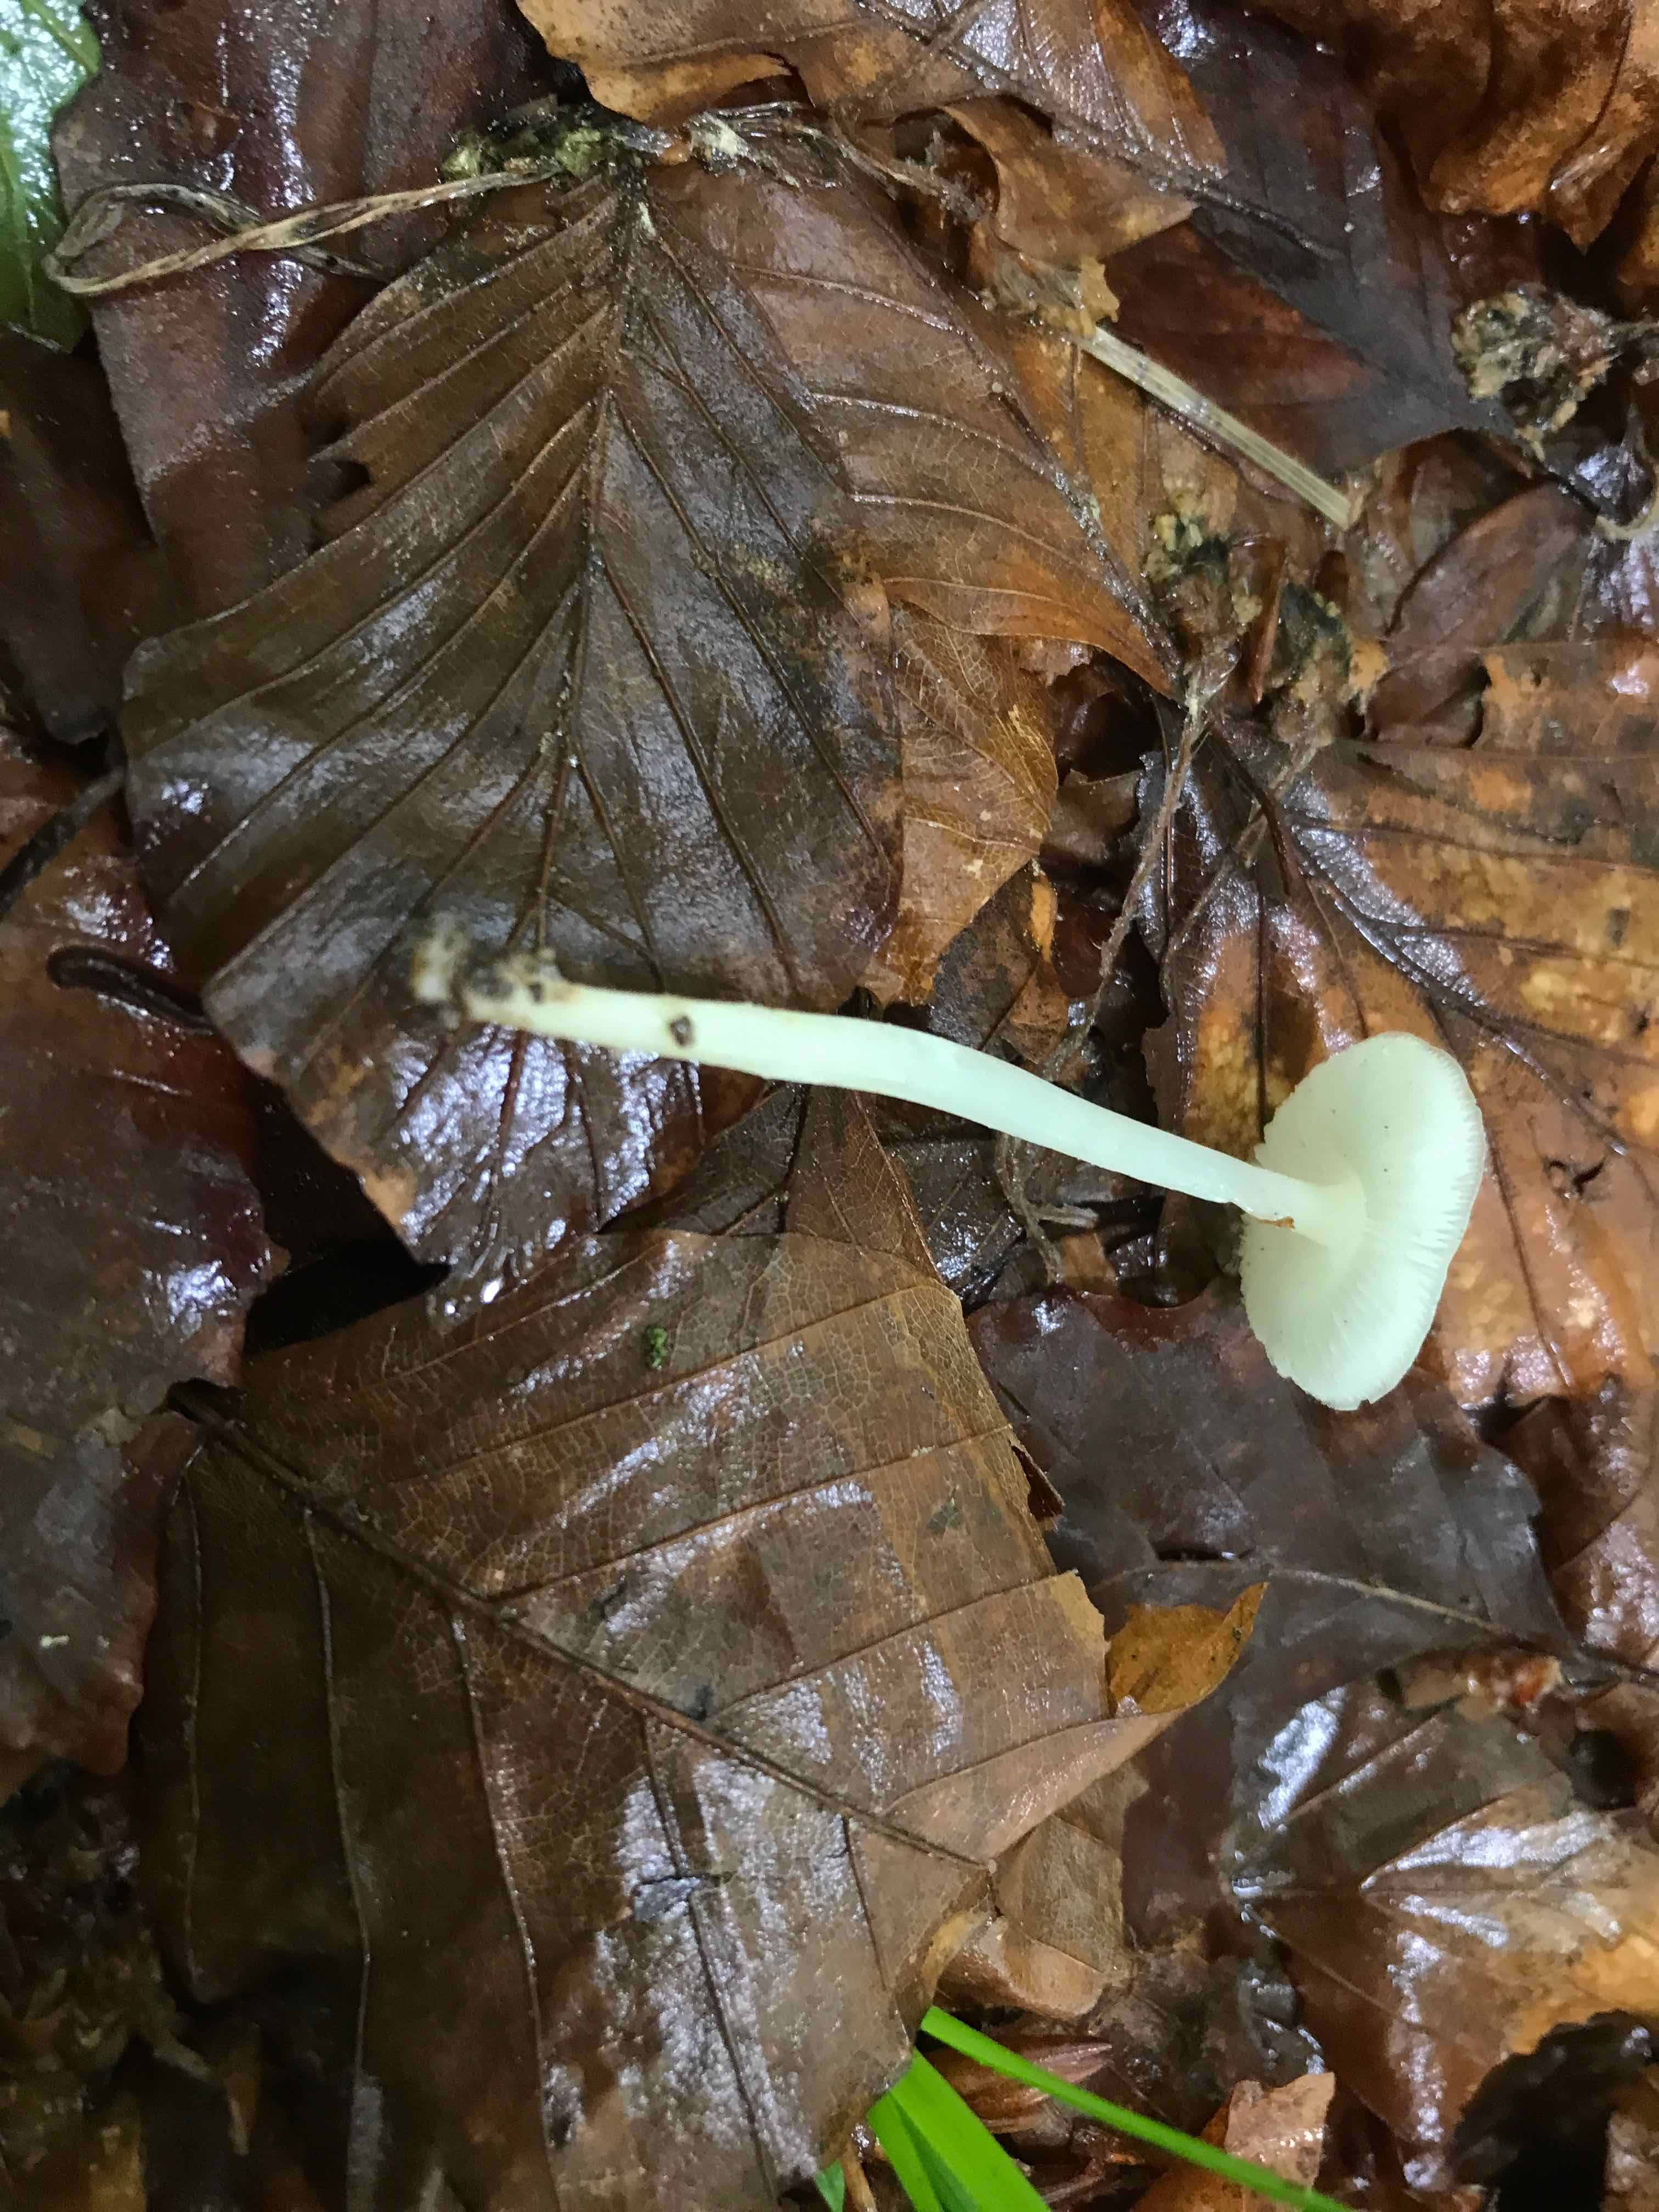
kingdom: Fungi
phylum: Basidiomycota
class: Agaricomycetes
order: Agaricales
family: Porotheleaceae
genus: Hydropodia
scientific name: Hydropodia subalpina
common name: vår-fnugfod
